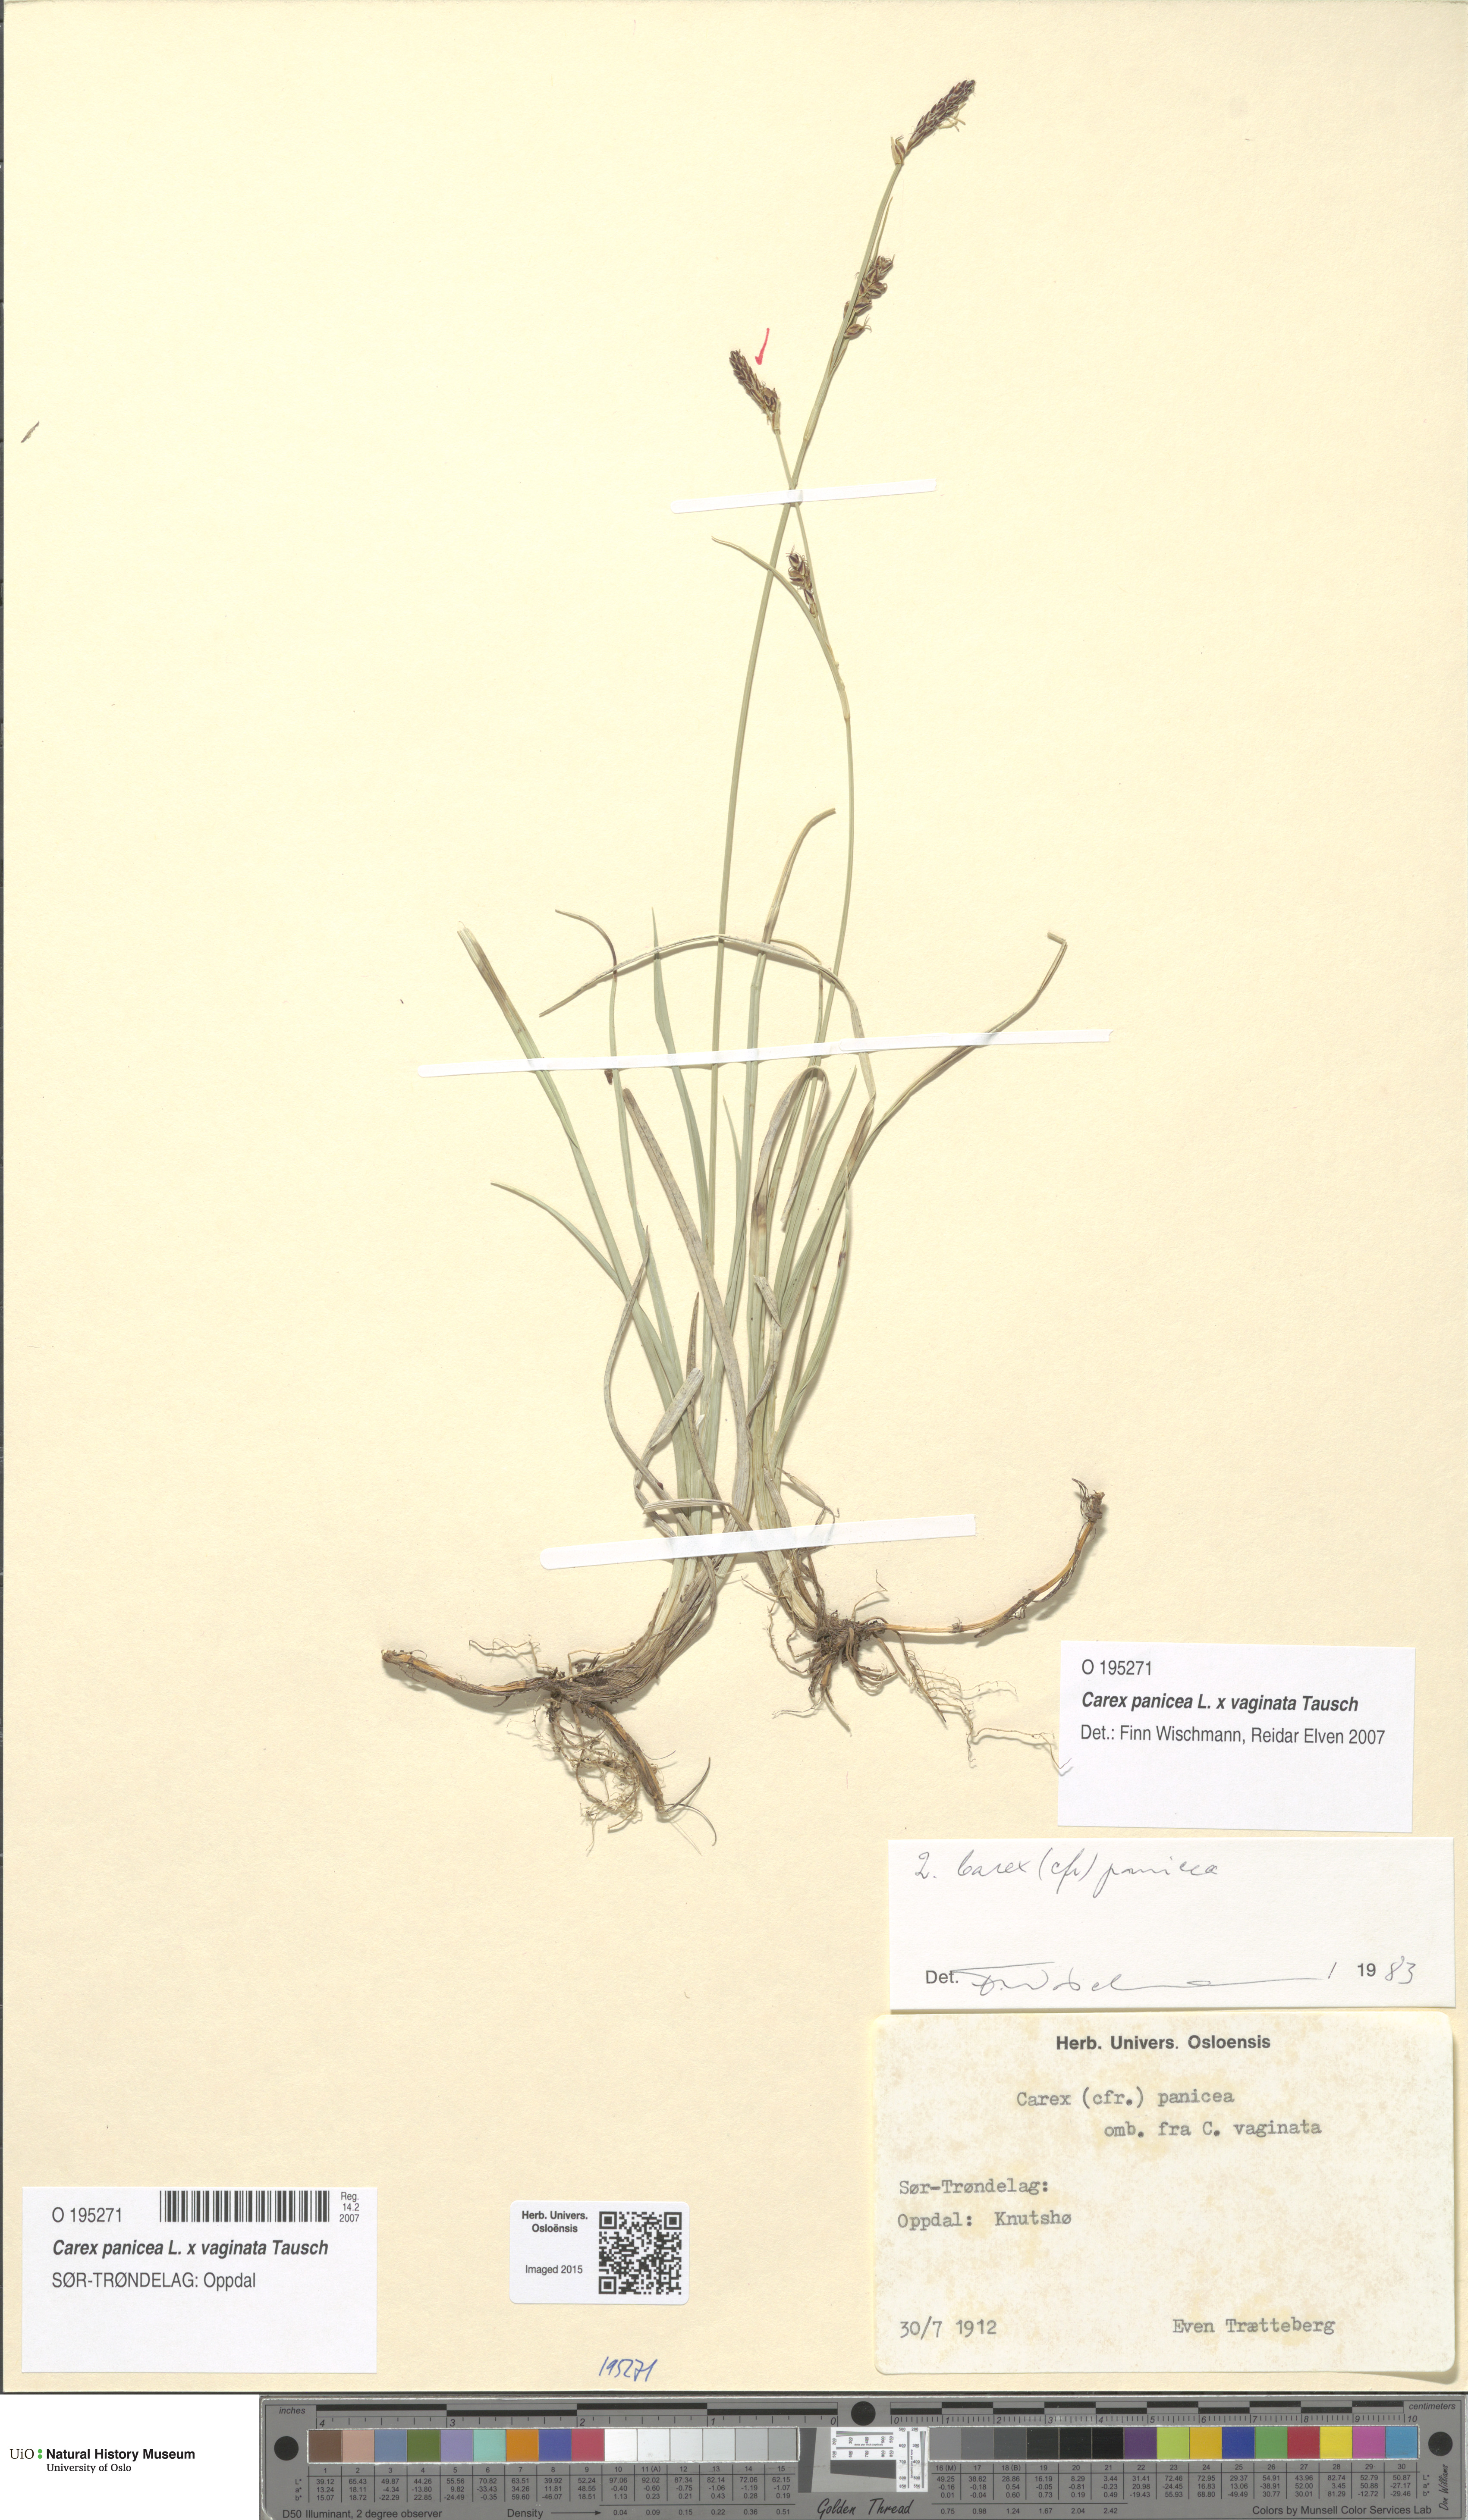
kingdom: Plantae
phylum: Tracheophyta
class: Liliopsida
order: Poales
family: Cyperaceae
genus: Carex
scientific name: Carex
